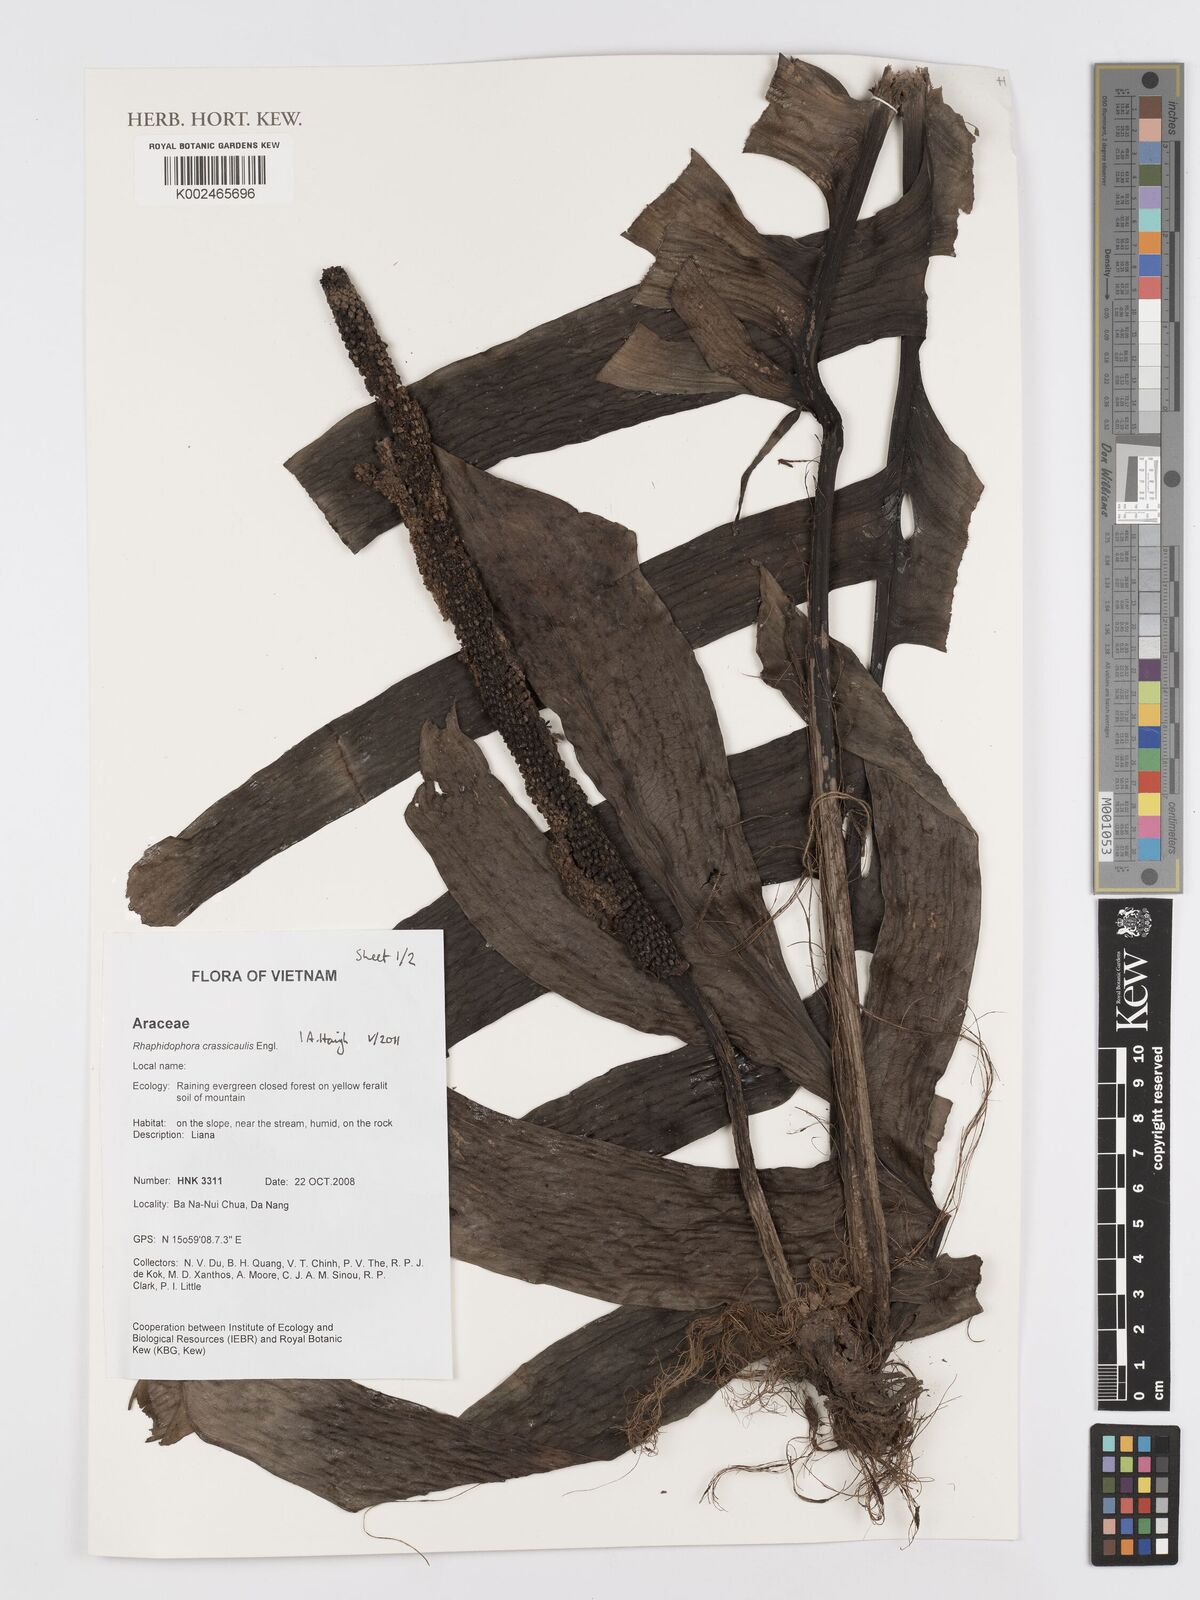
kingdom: Plantae
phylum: Tracheophyta
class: Liliopsida
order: Alismatales
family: Araceae
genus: Rhaphidophora
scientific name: Rhaphidophora crassicaulis
